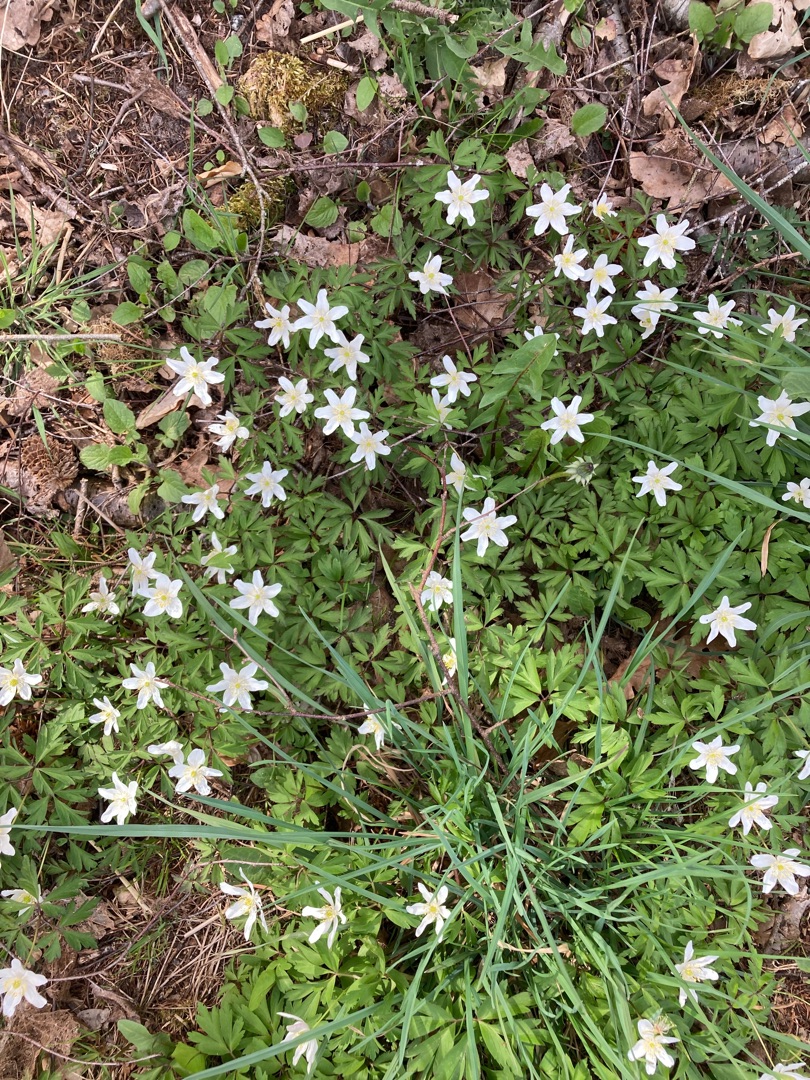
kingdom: Plantae
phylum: Tracheophyta
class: Magnoliopsida
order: Ranunculales
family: Ranunculaceae
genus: Anemone
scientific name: Anemone nemorosa
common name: Hvid anemone
